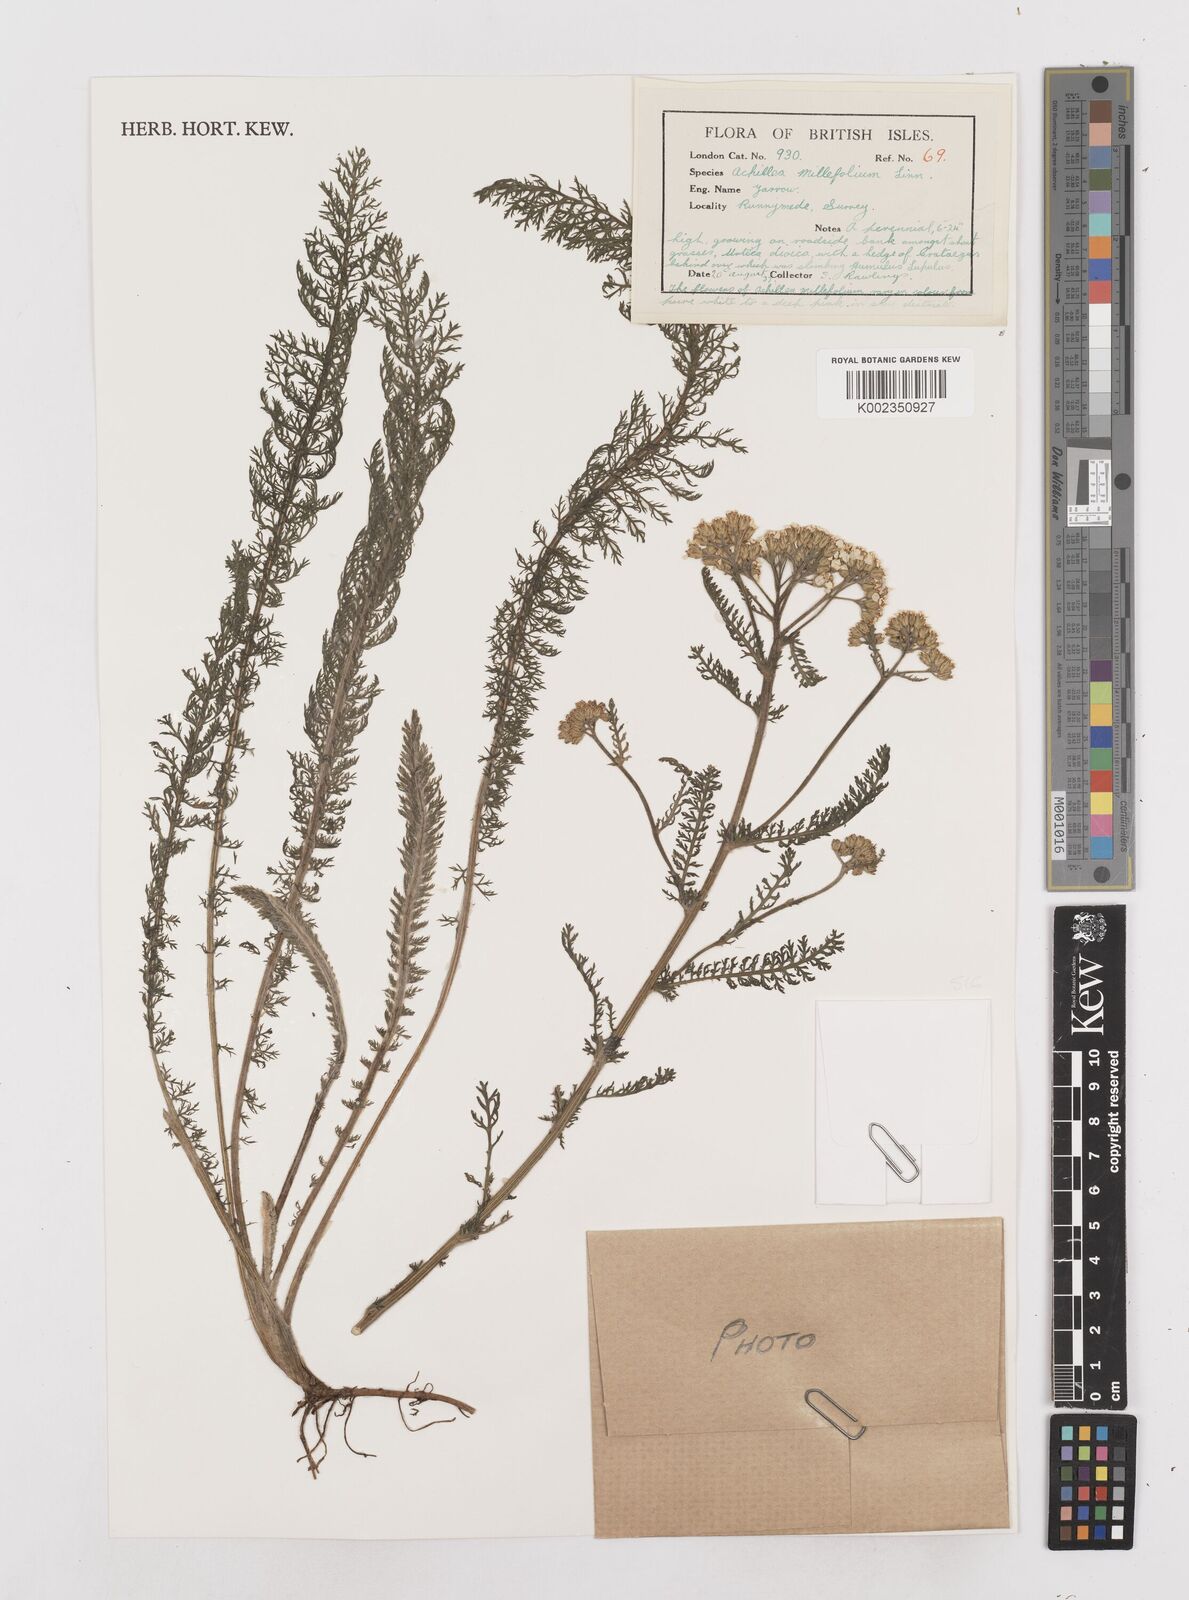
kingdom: Plantae
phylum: Tracheophyta
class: Magnoliopsida
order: Asterales
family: Asteraceae
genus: Achillea
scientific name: Achillea distans
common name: Tall yarrow
